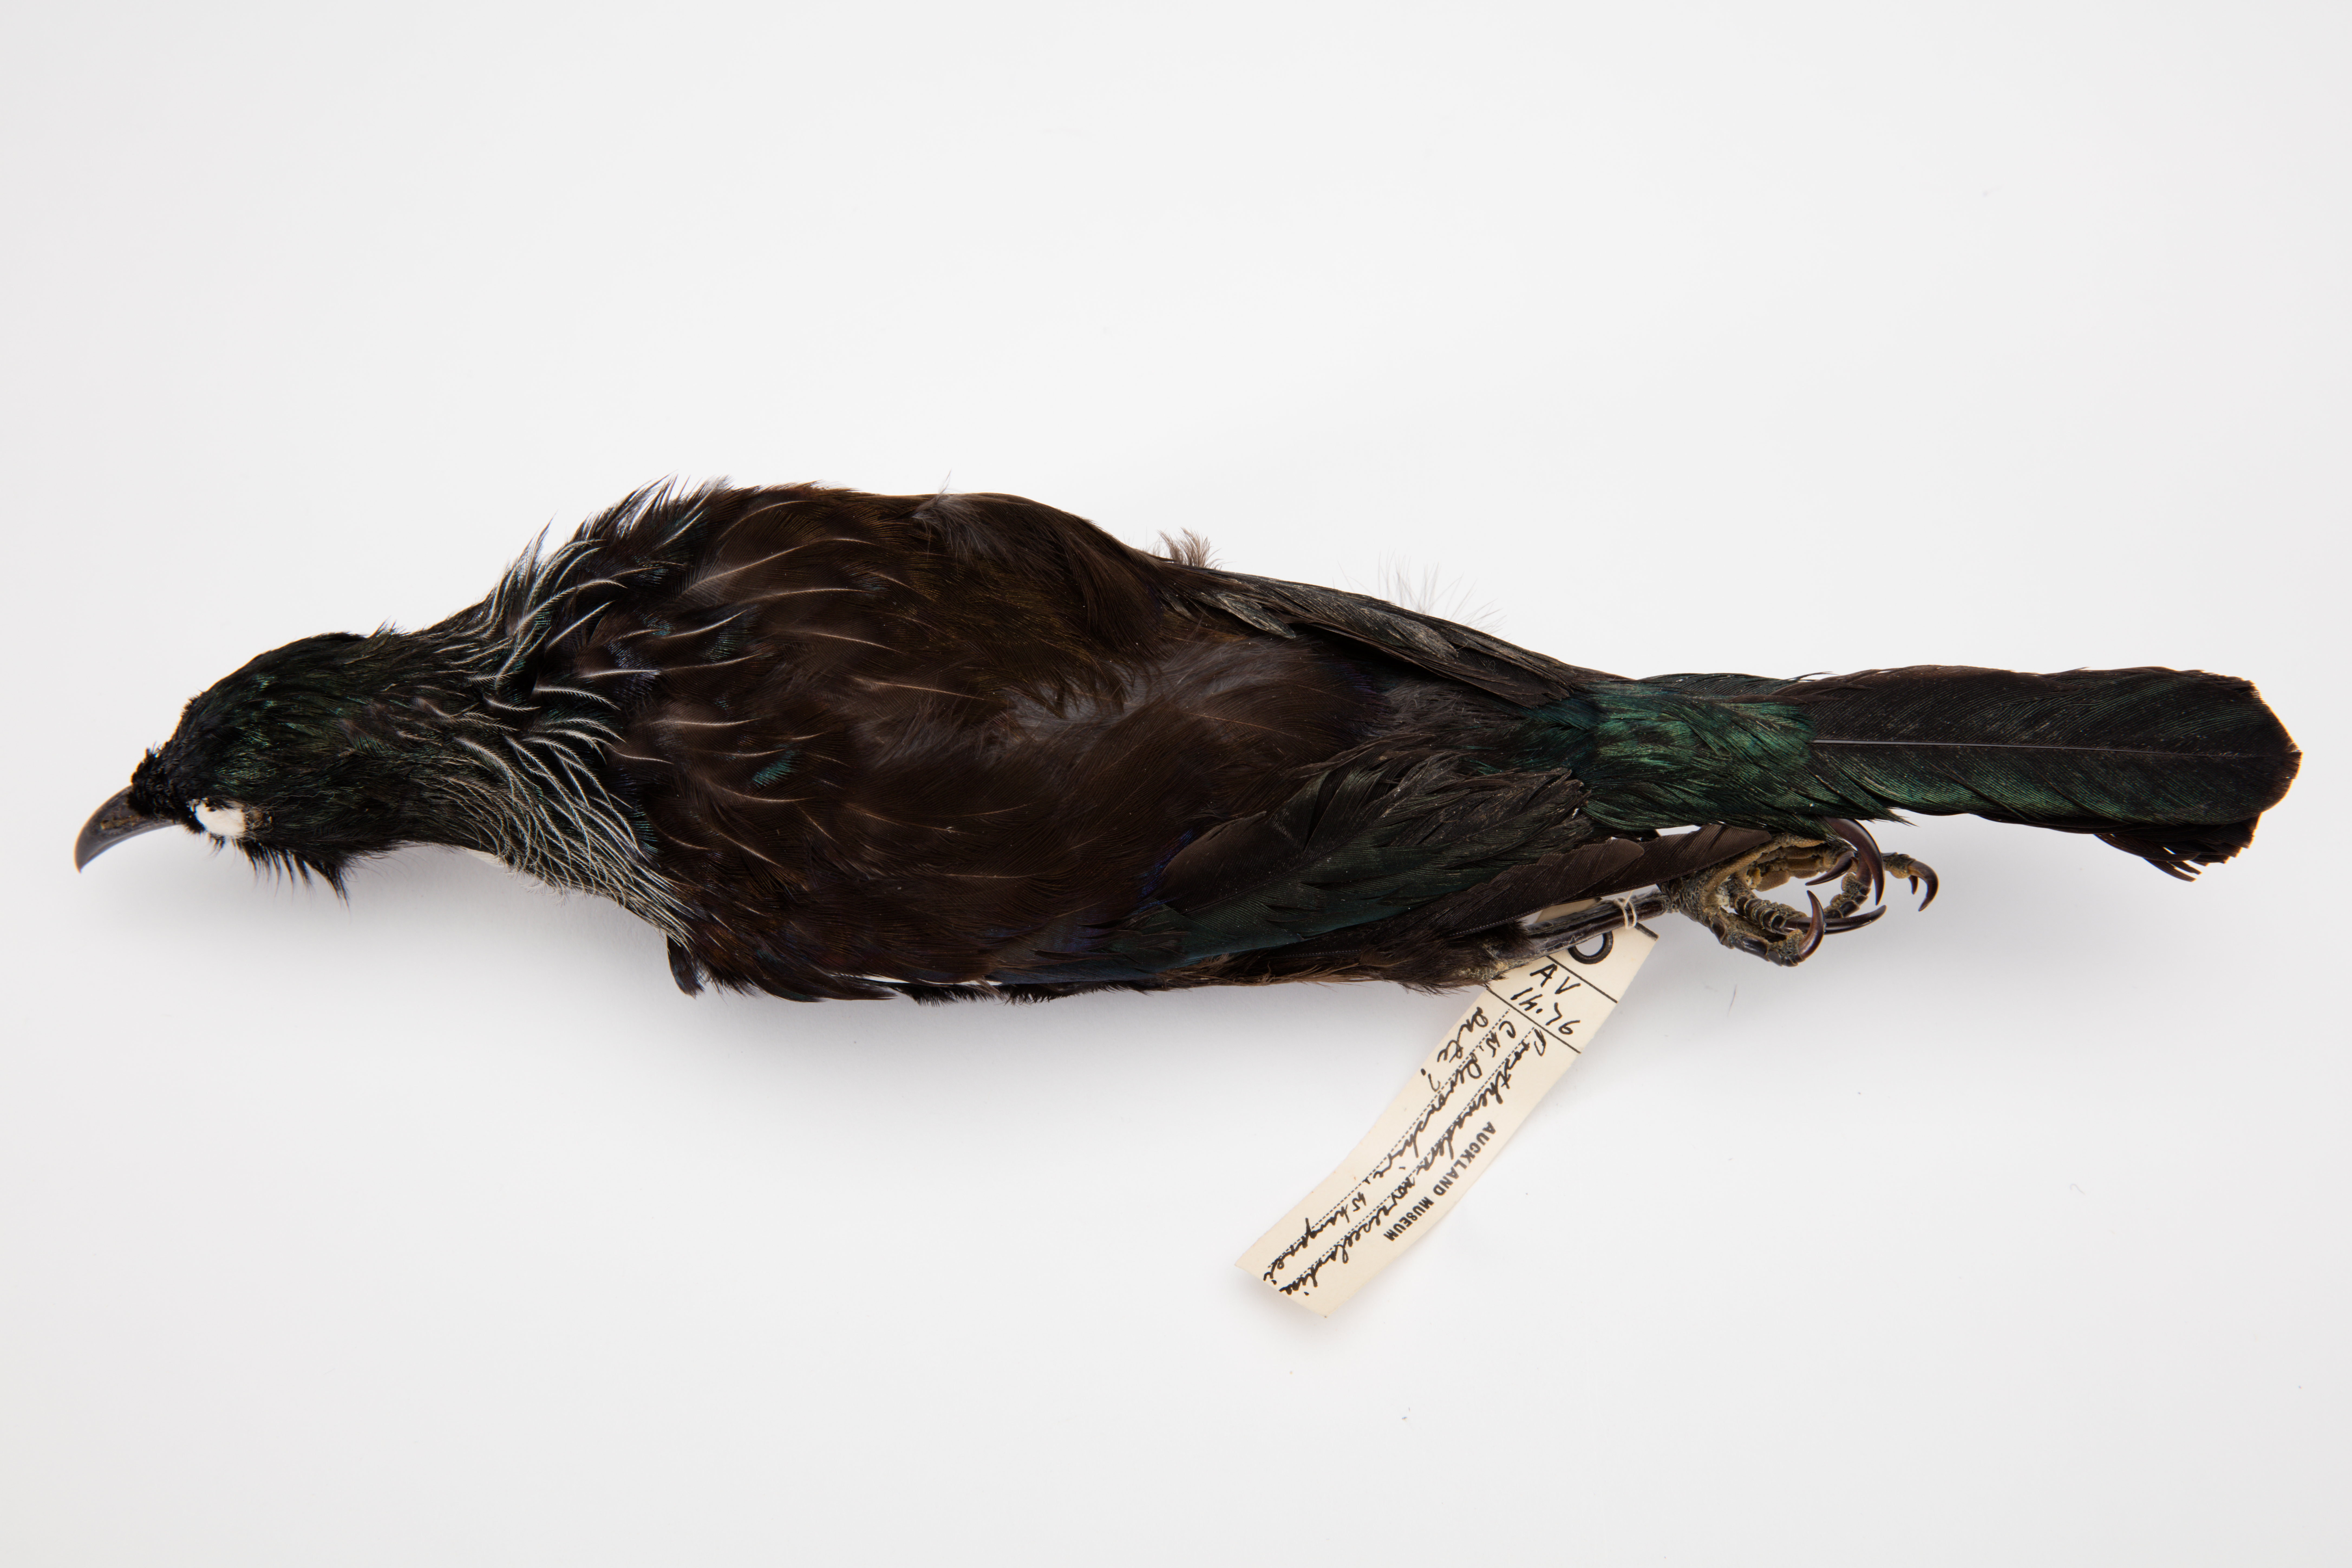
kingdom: Animalia
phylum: Chordata
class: Aves
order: Passeriformes
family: Meliphagidae
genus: Prosthemadera
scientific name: Prosthemadera novaeseelandiae
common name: Tui
